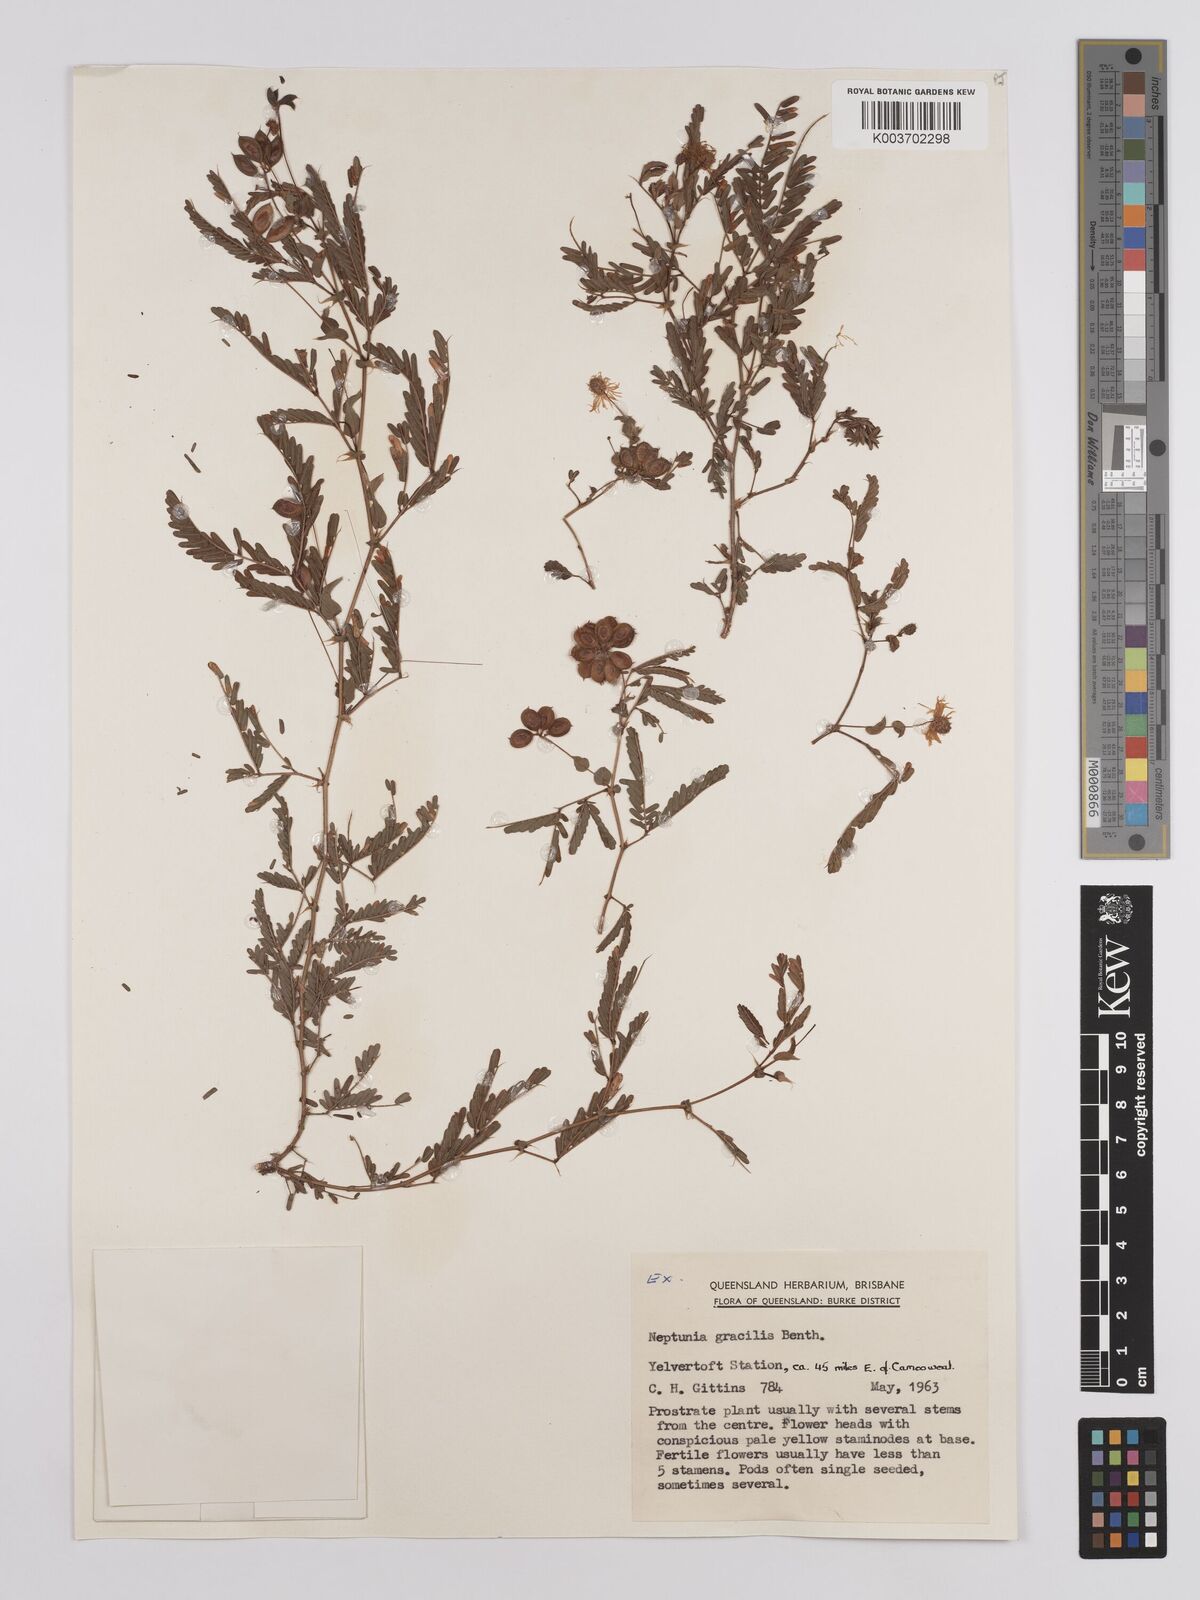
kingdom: Plantae
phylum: Tracheophyta
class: Magnoliopsida
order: Fabales
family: Fabaceae
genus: Neptunia
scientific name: Neptunia dimorphantha
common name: Sensitive-plant
